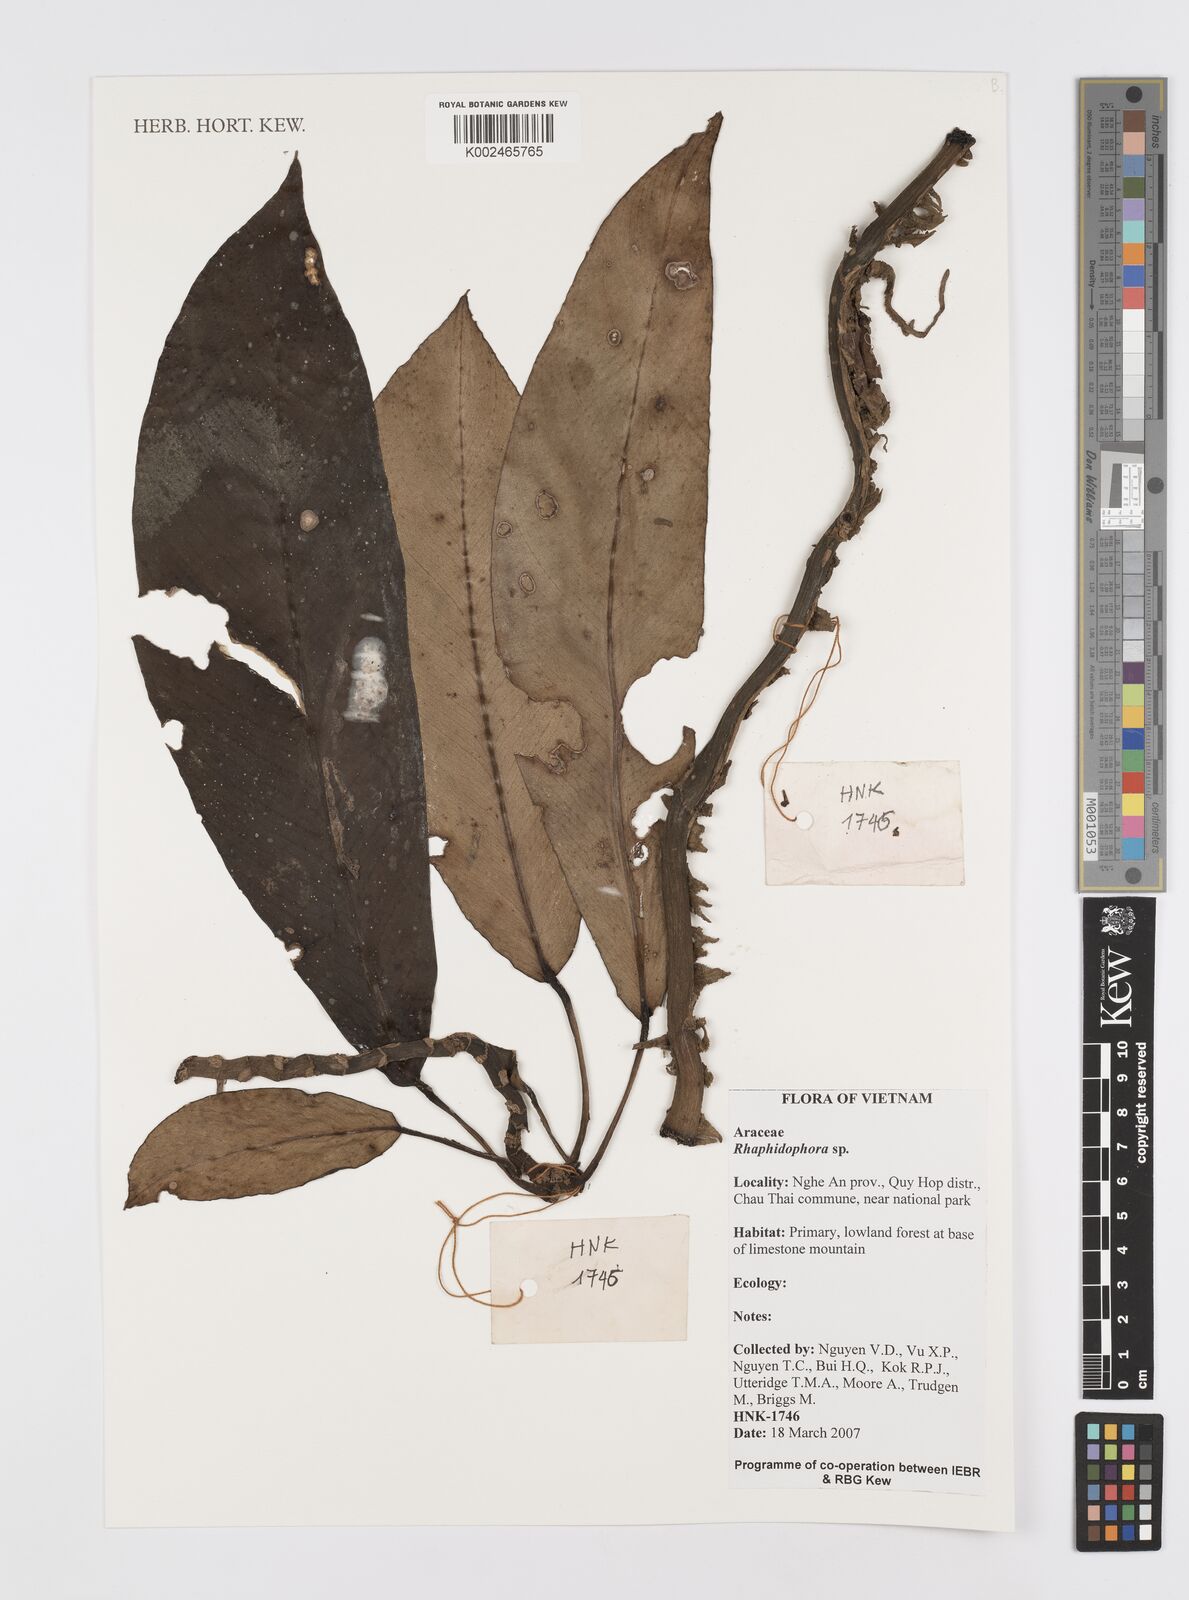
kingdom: Plantae
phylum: Tracheophyta
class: Liliopsida
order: Alismatales
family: Araceae
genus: Rhaphidophora
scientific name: Rhaphidophora
